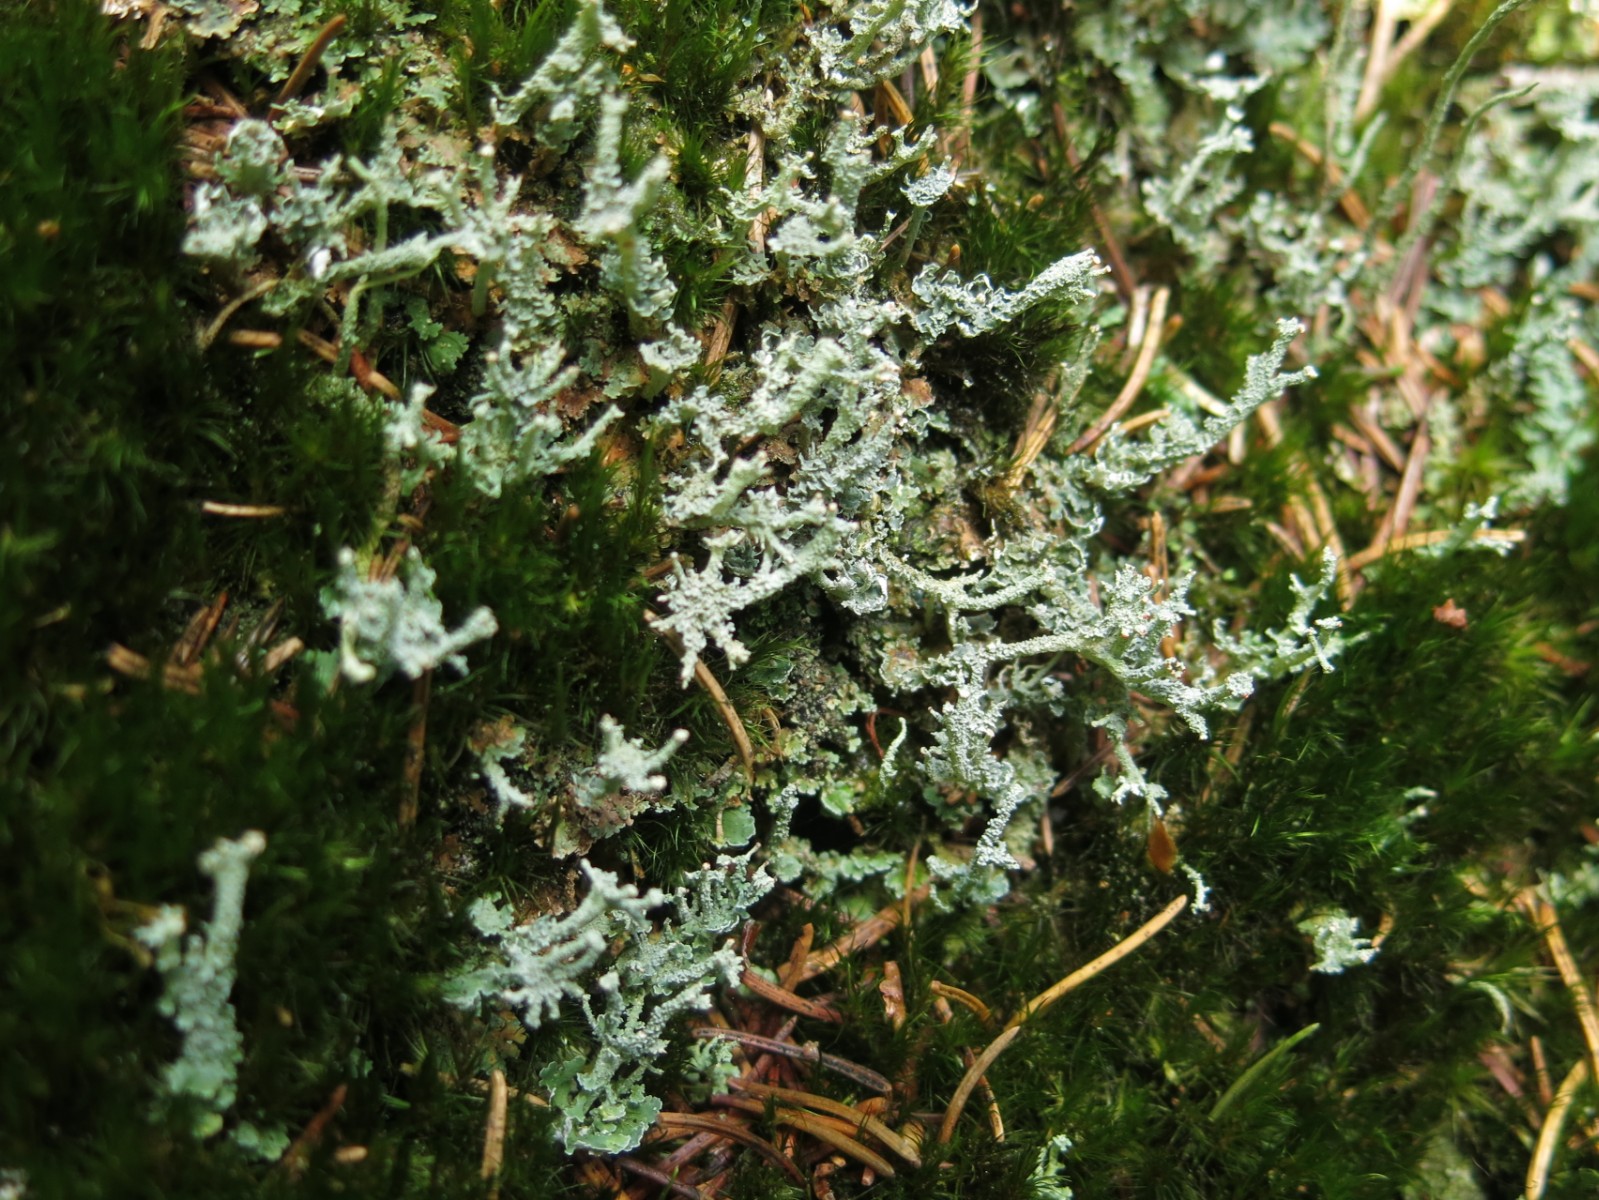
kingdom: Fungi
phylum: Ascomycota
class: Lecanoromycetes
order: Lecanorales
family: Cladoniaceae
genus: Cladonia
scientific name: Cladonia polydactyla
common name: vifte-bægerlav
